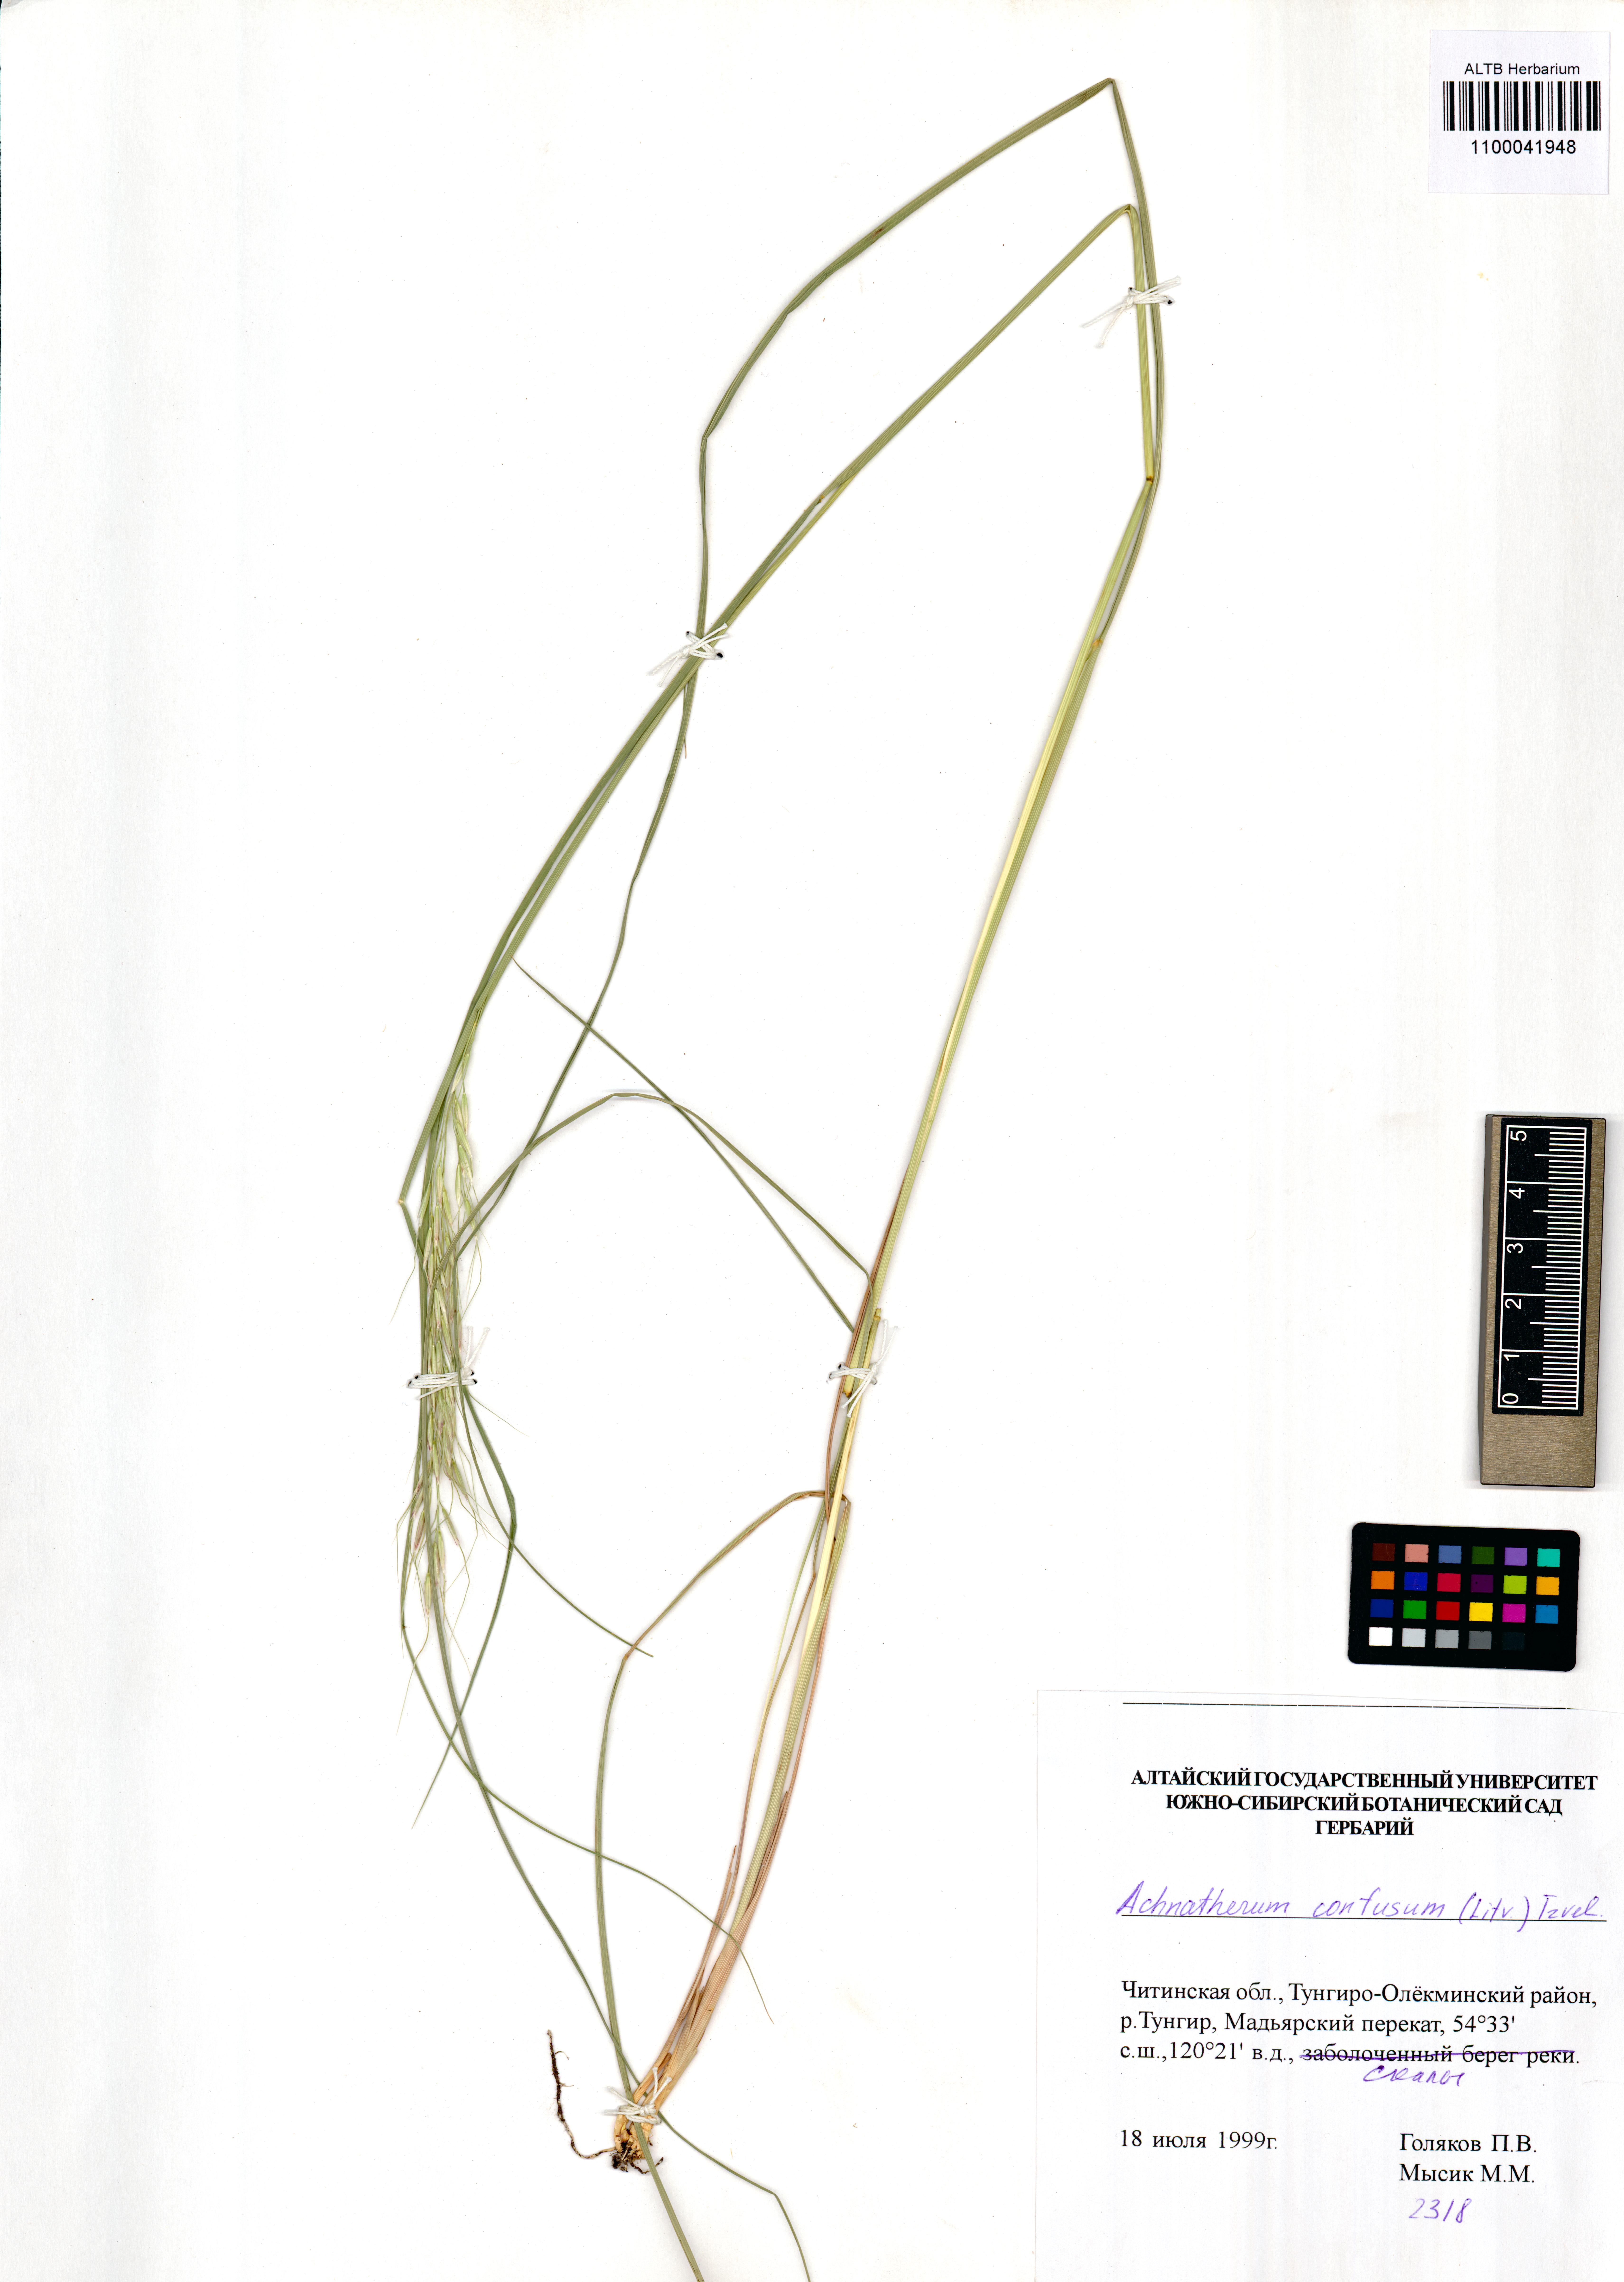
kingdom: Plantae
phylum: Tracheophyta
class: Liliopsida
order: Poales
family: Poaceae
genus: Achnatherum
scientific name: Achnatherum confusum
